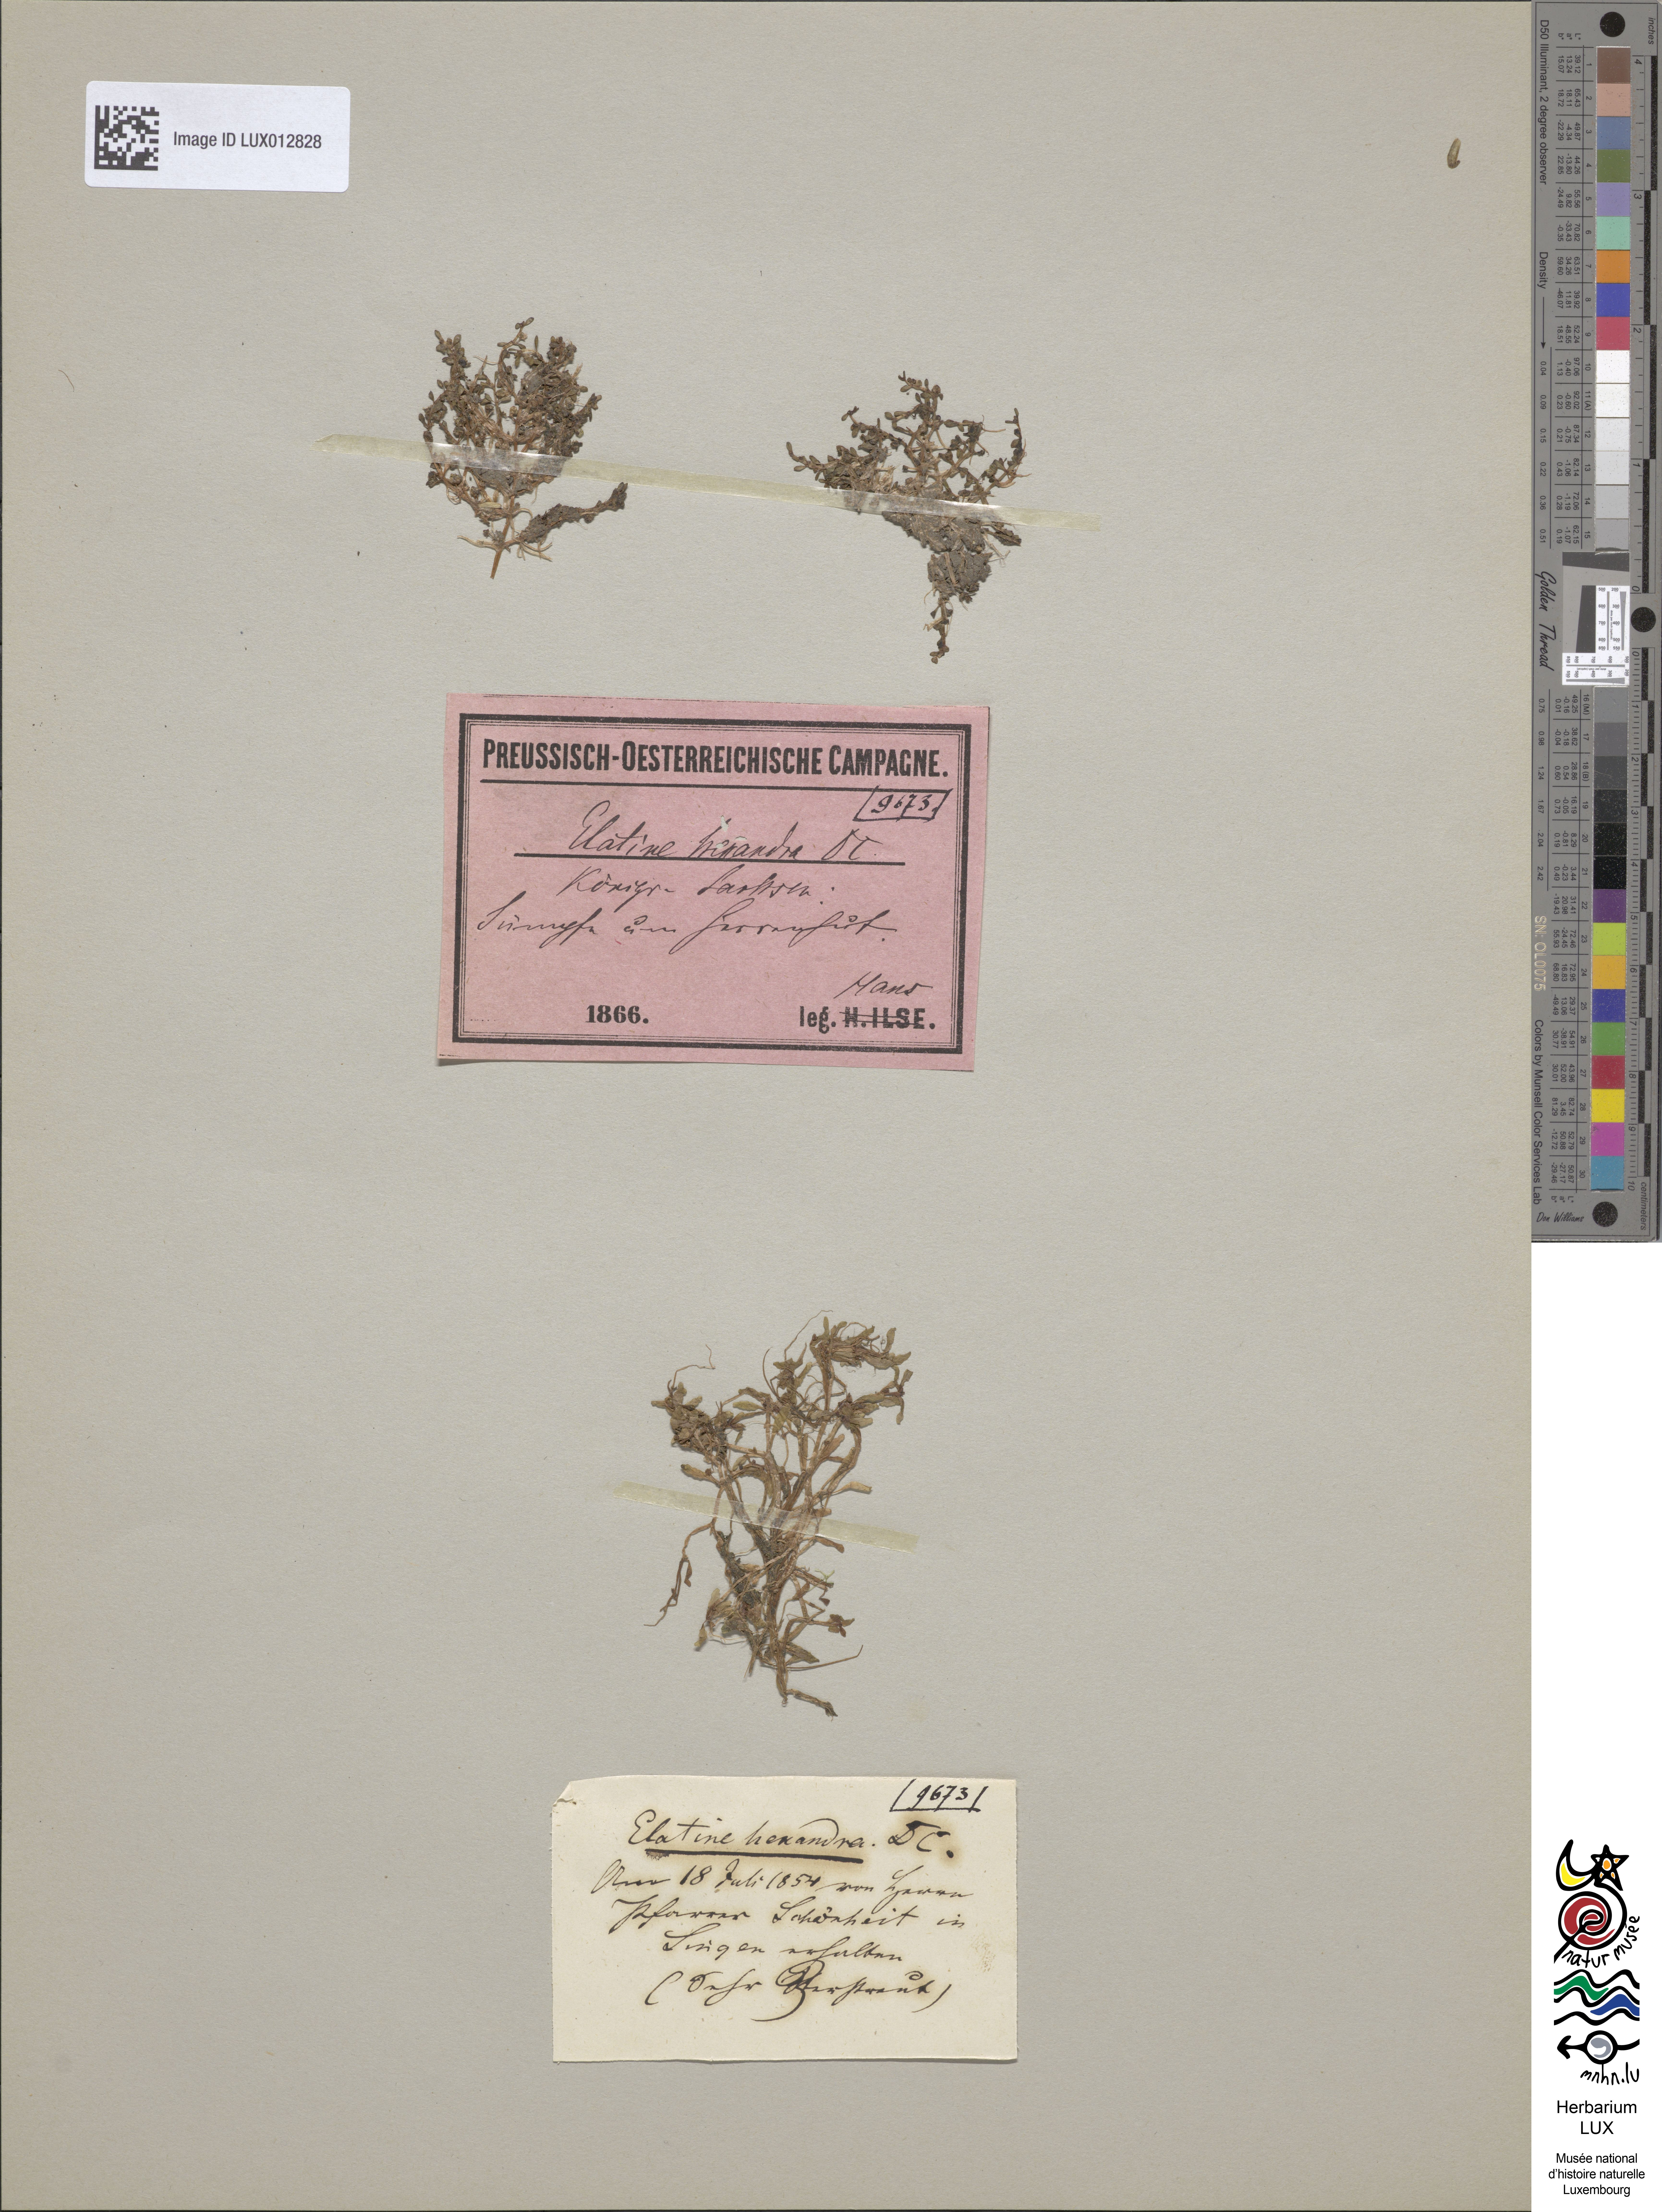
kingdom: Plantae
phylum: Tracheophyta
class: Magnoliopsida
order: Malpighiales
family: Elatinaceae
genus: Elatine
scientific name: Elatine hexandra
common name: Six-stamened waterwort
